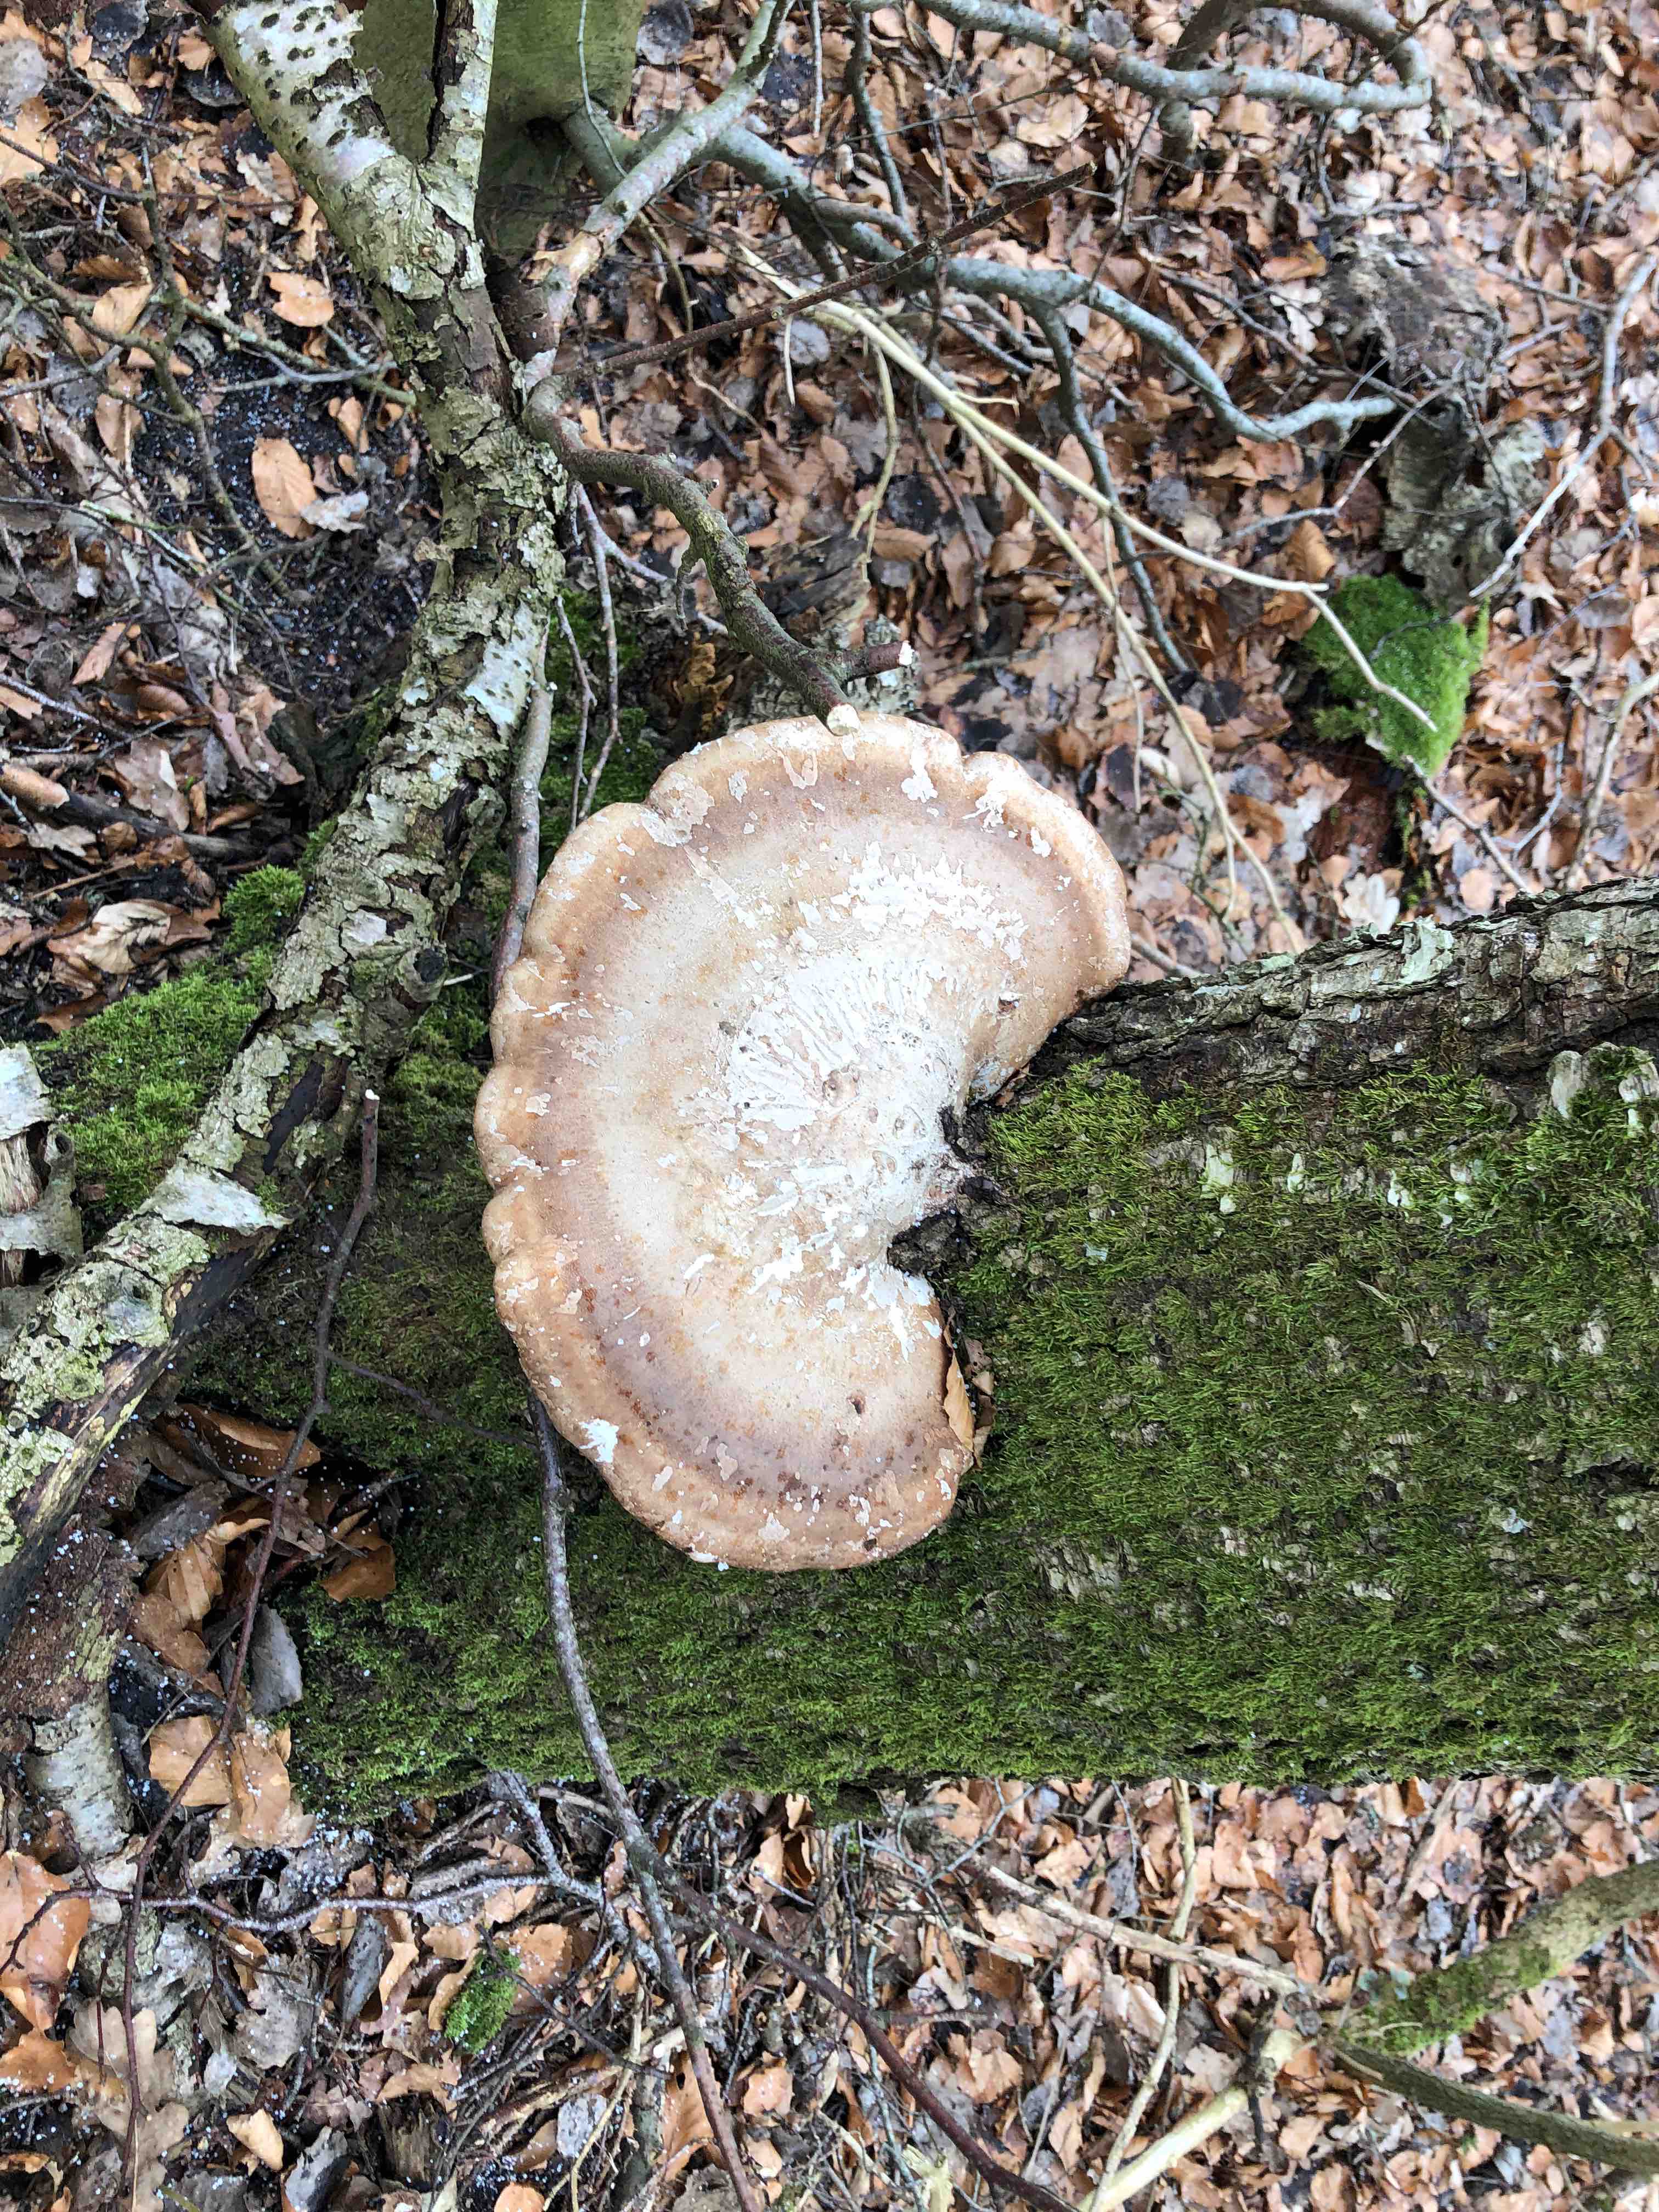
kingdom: Fungi
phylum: Basidiomycota
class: Agaricomycetes
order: Polyporales
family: Fomitopsidaceae
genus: Fomitopsis
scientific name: Fomitopsis betulina
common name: birkeporesvamp
